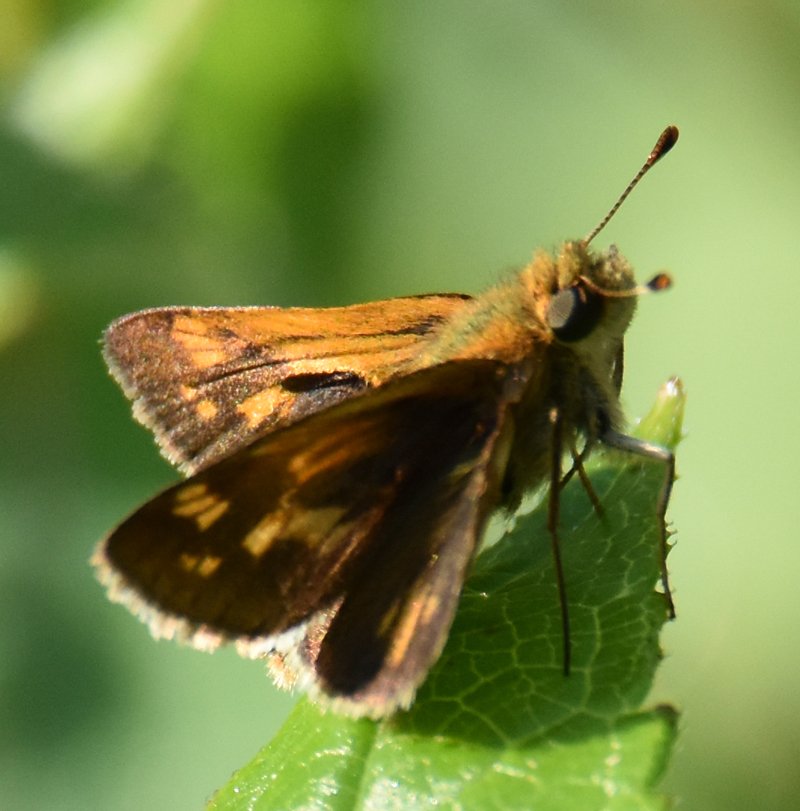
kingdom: Animalia
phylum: Arthropoda
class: Insecta
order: Lepidoptera
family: Hesperiidae
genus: Polites
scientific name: Polites coras
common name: Peck's Skipper
